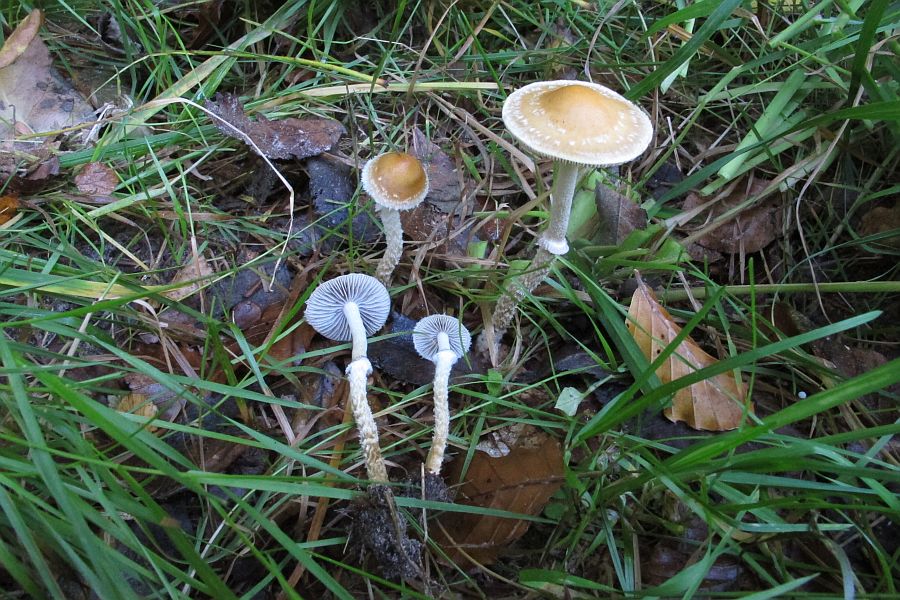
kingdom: Fungi
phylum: Basidiomycota
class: Agaricomycetes
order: Agaricales
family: Strophariaceae
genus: Leratiomyces
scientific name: Leratiomyces squamosus
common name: skællet bredblad
